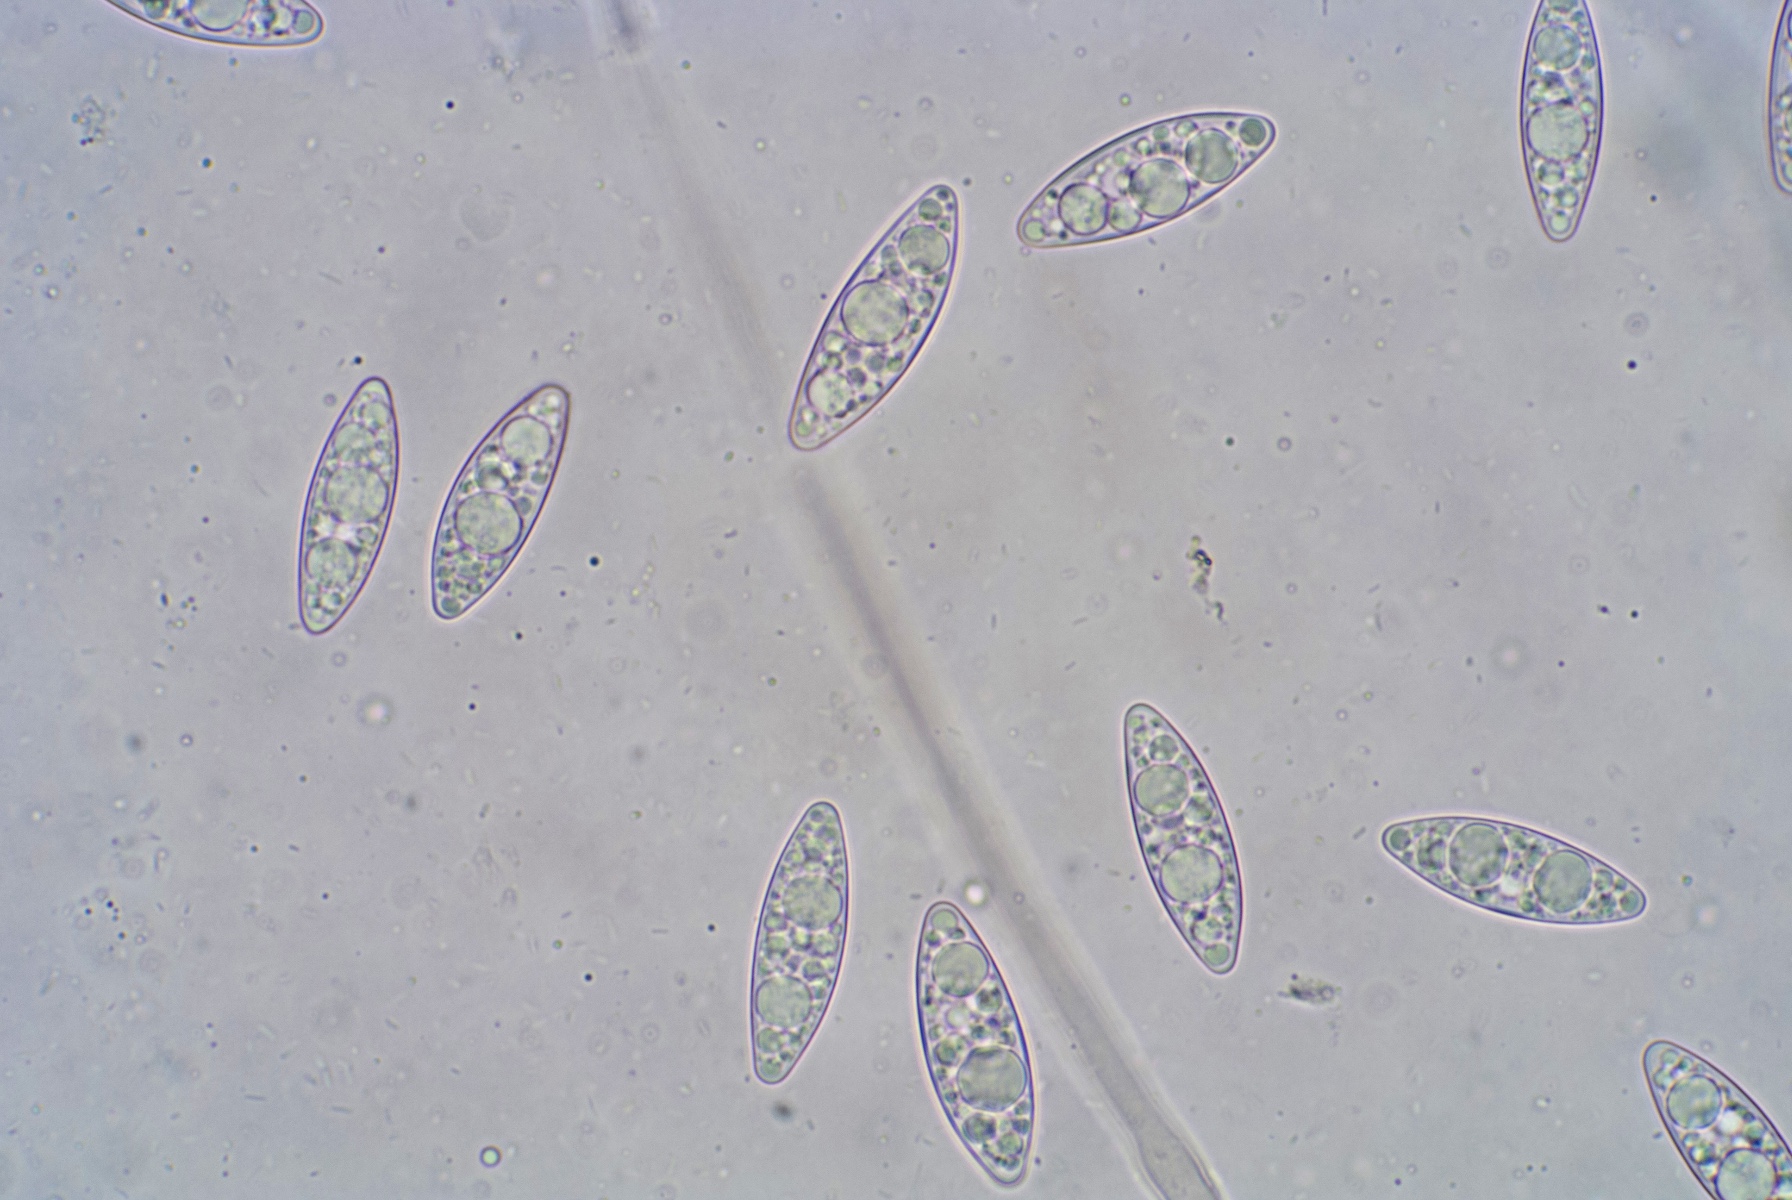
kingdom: Fungi
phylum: Ascomycota
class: Pezizomycetes
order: Pezizales
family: Pezizaceae
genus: Ionopezia
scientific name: Ionopezia gerardii
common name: tensporet bægersvamp
